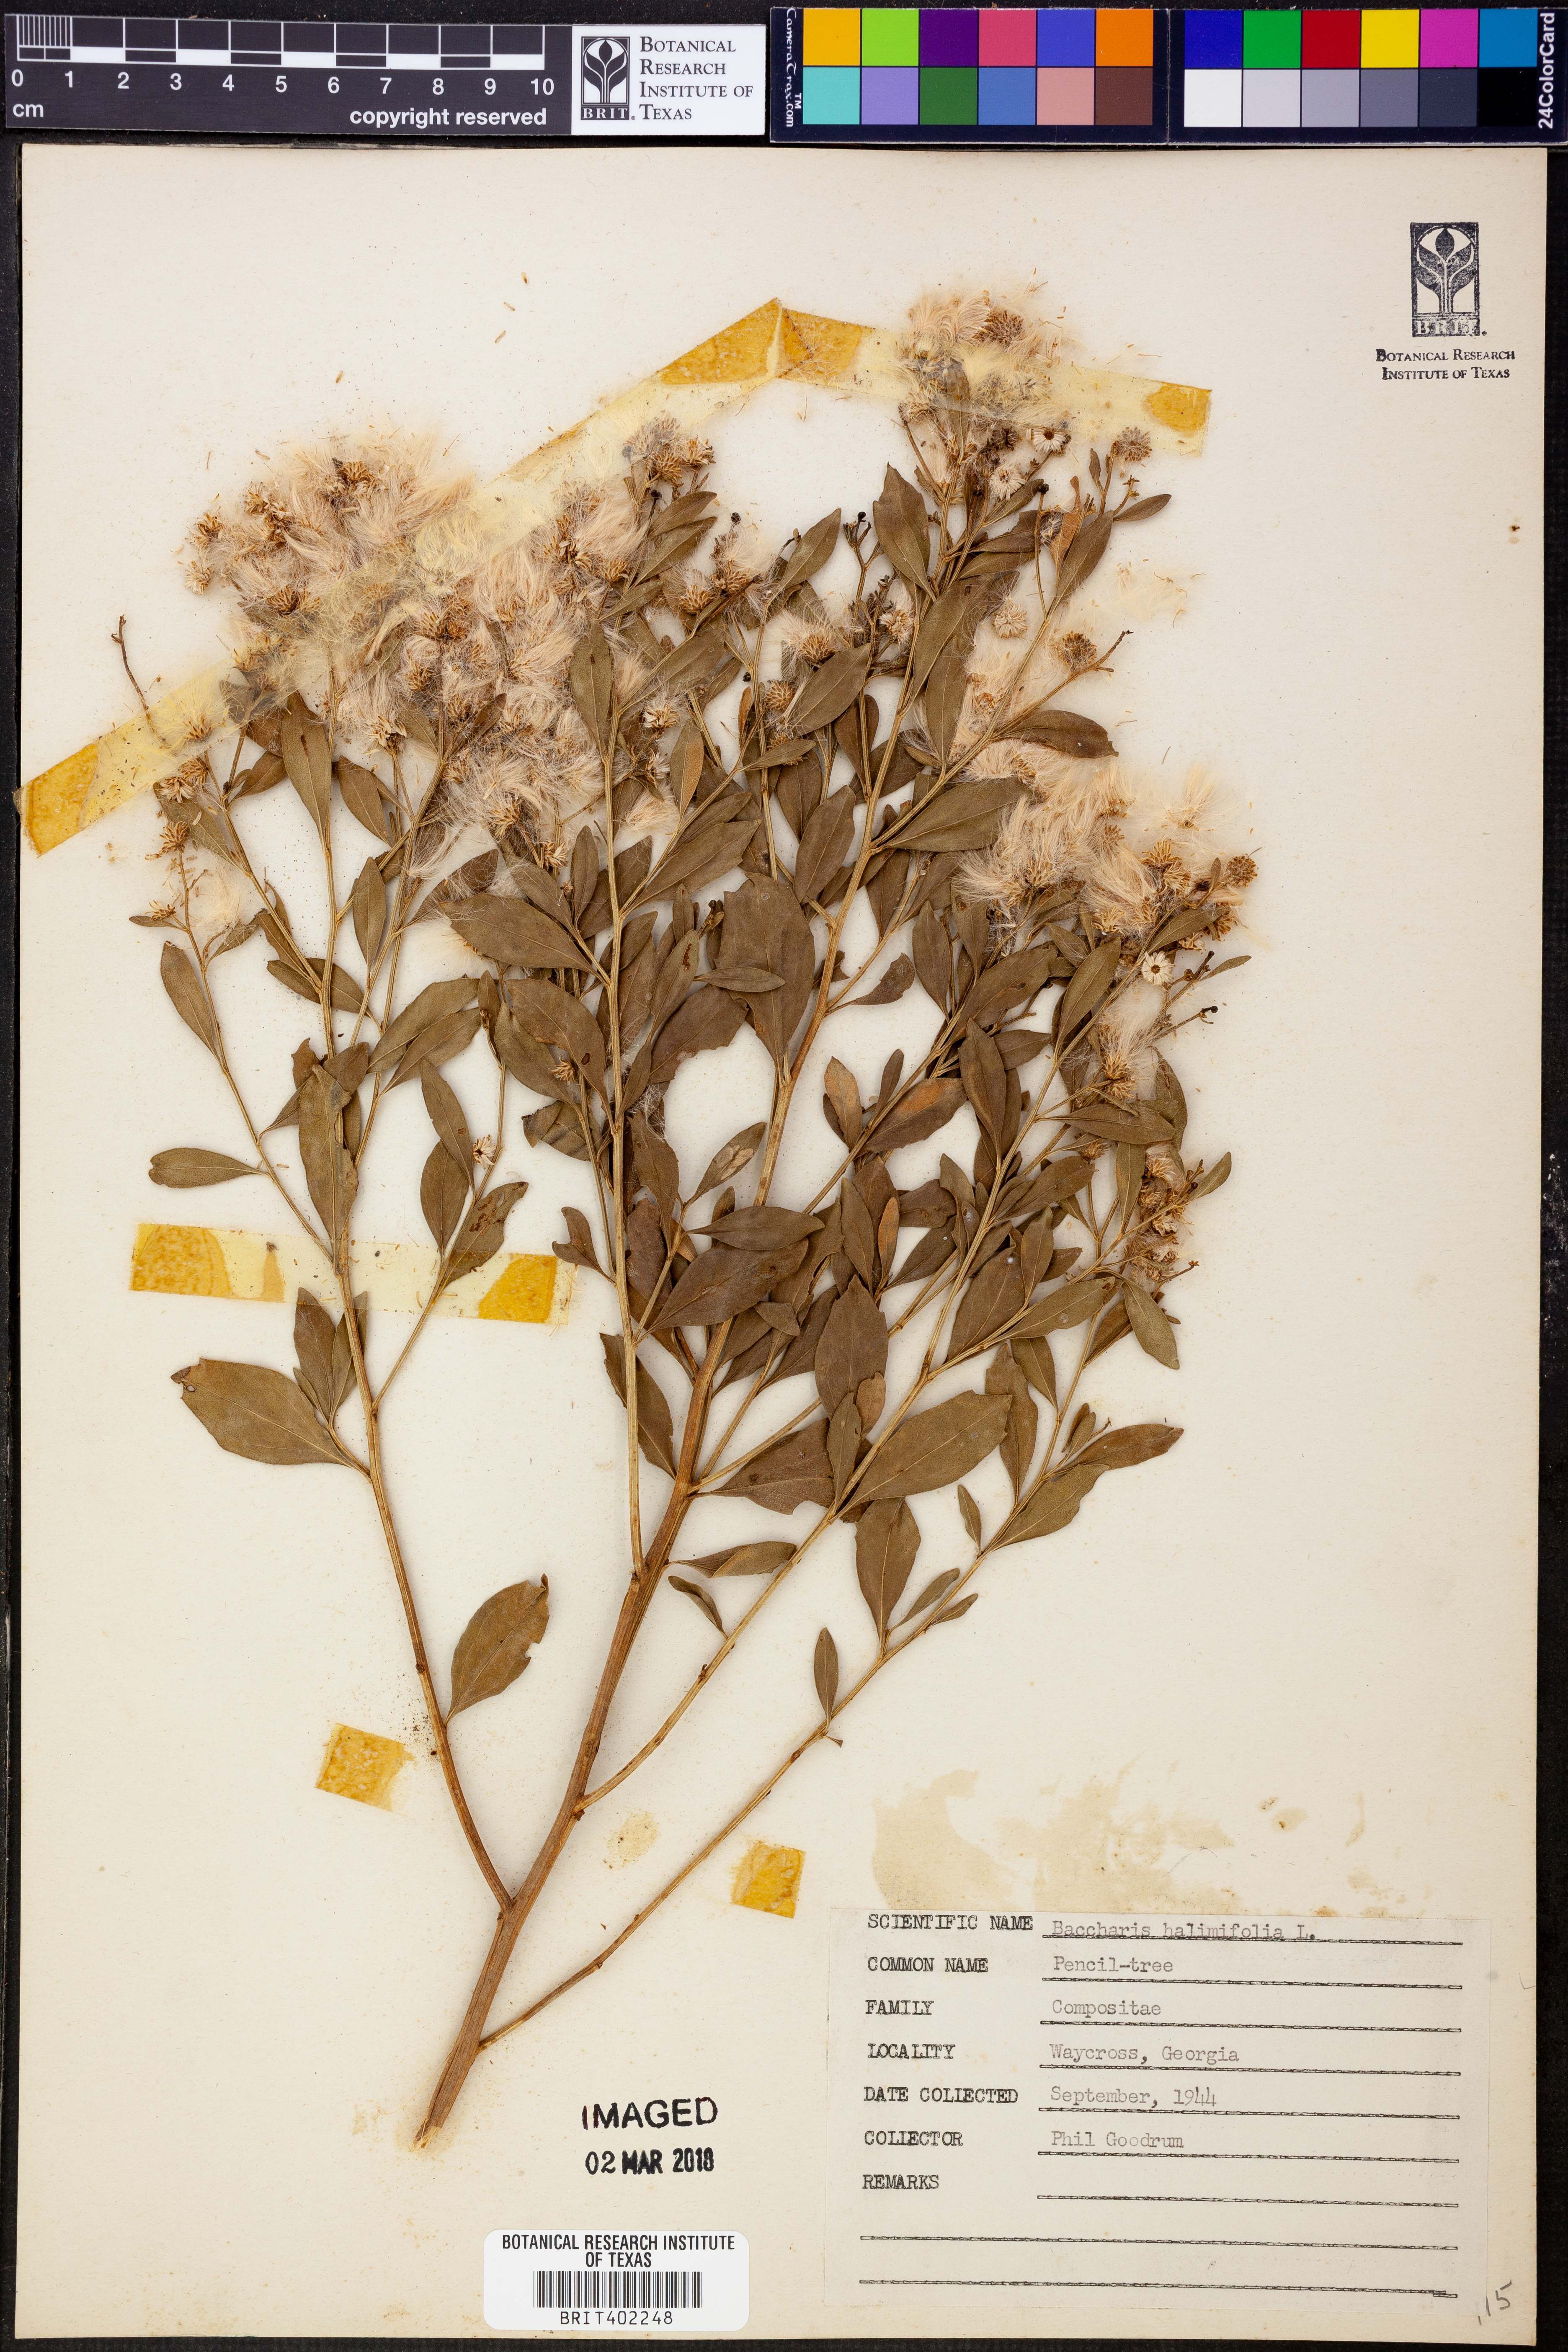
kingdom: Plantae
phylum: Tracheophyta
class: Magnoliopsida
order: Asterales
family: Asteraceae
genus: Nidorella
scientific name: Nidorella ivifolia
